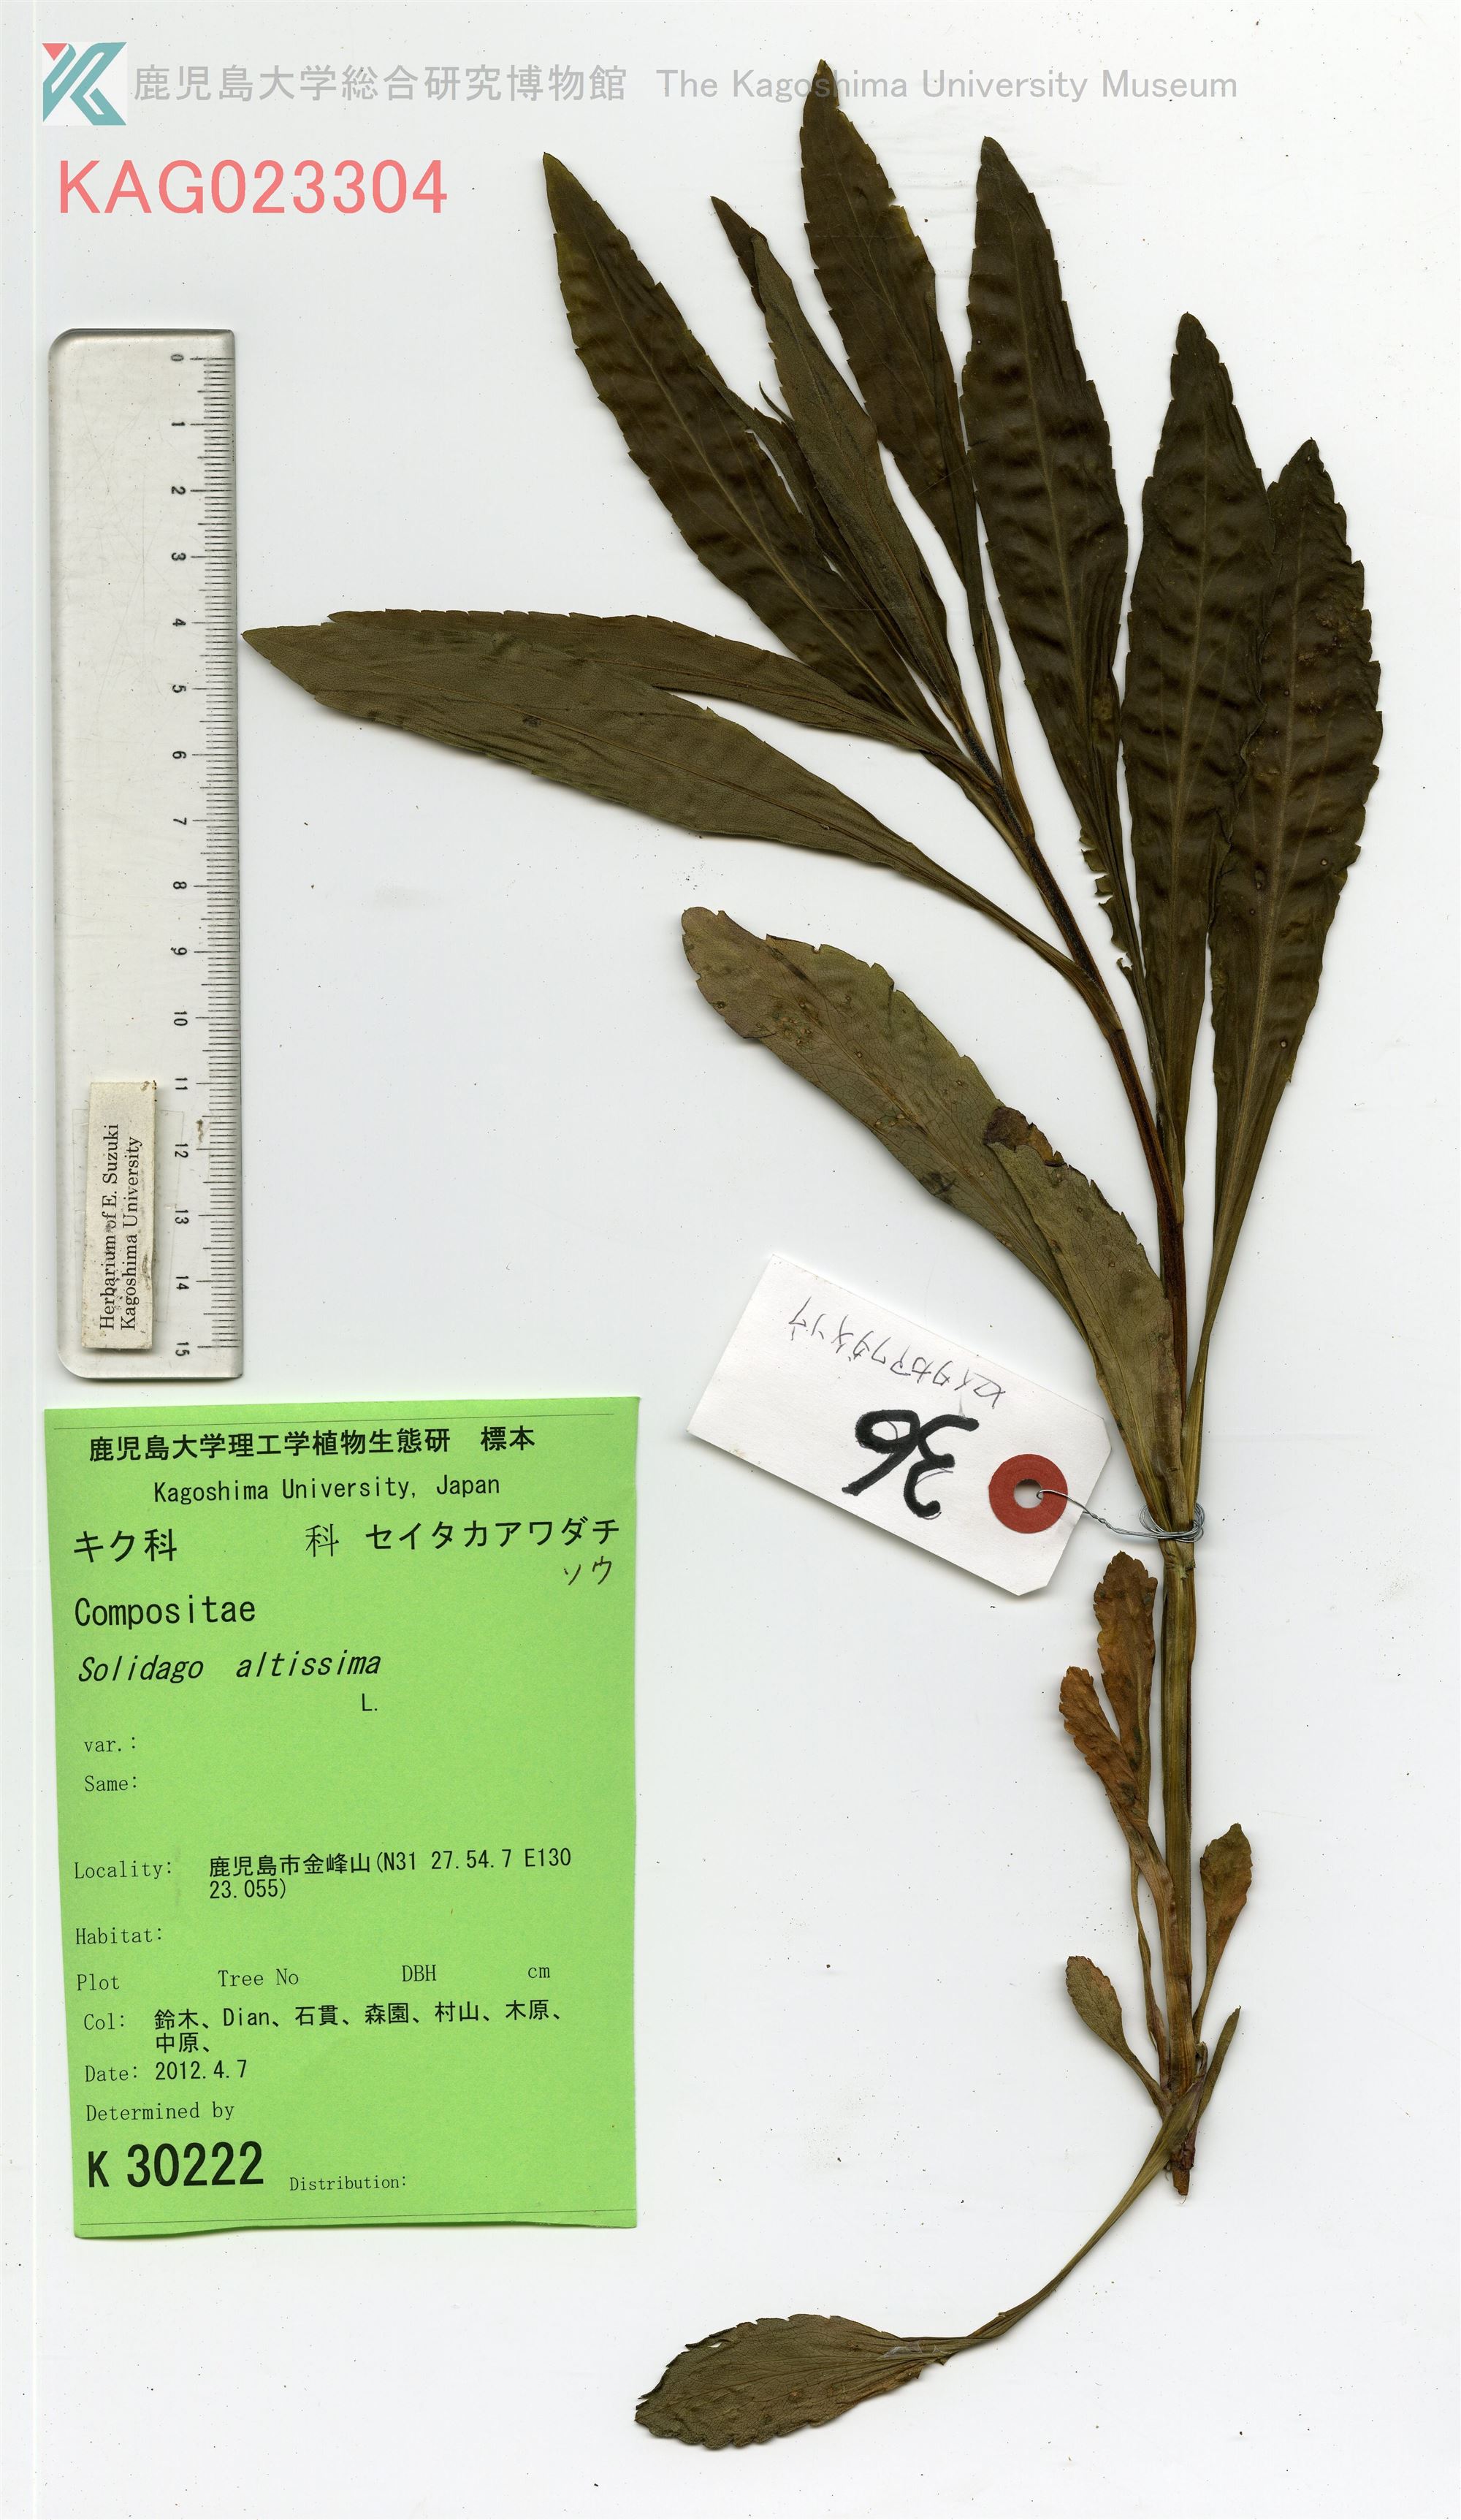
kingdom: Plantae
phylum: Tracheophyta
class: Magnoliopsida
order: Asterales
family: Asteraceae
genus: Solidago
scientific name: Solidago altissima
